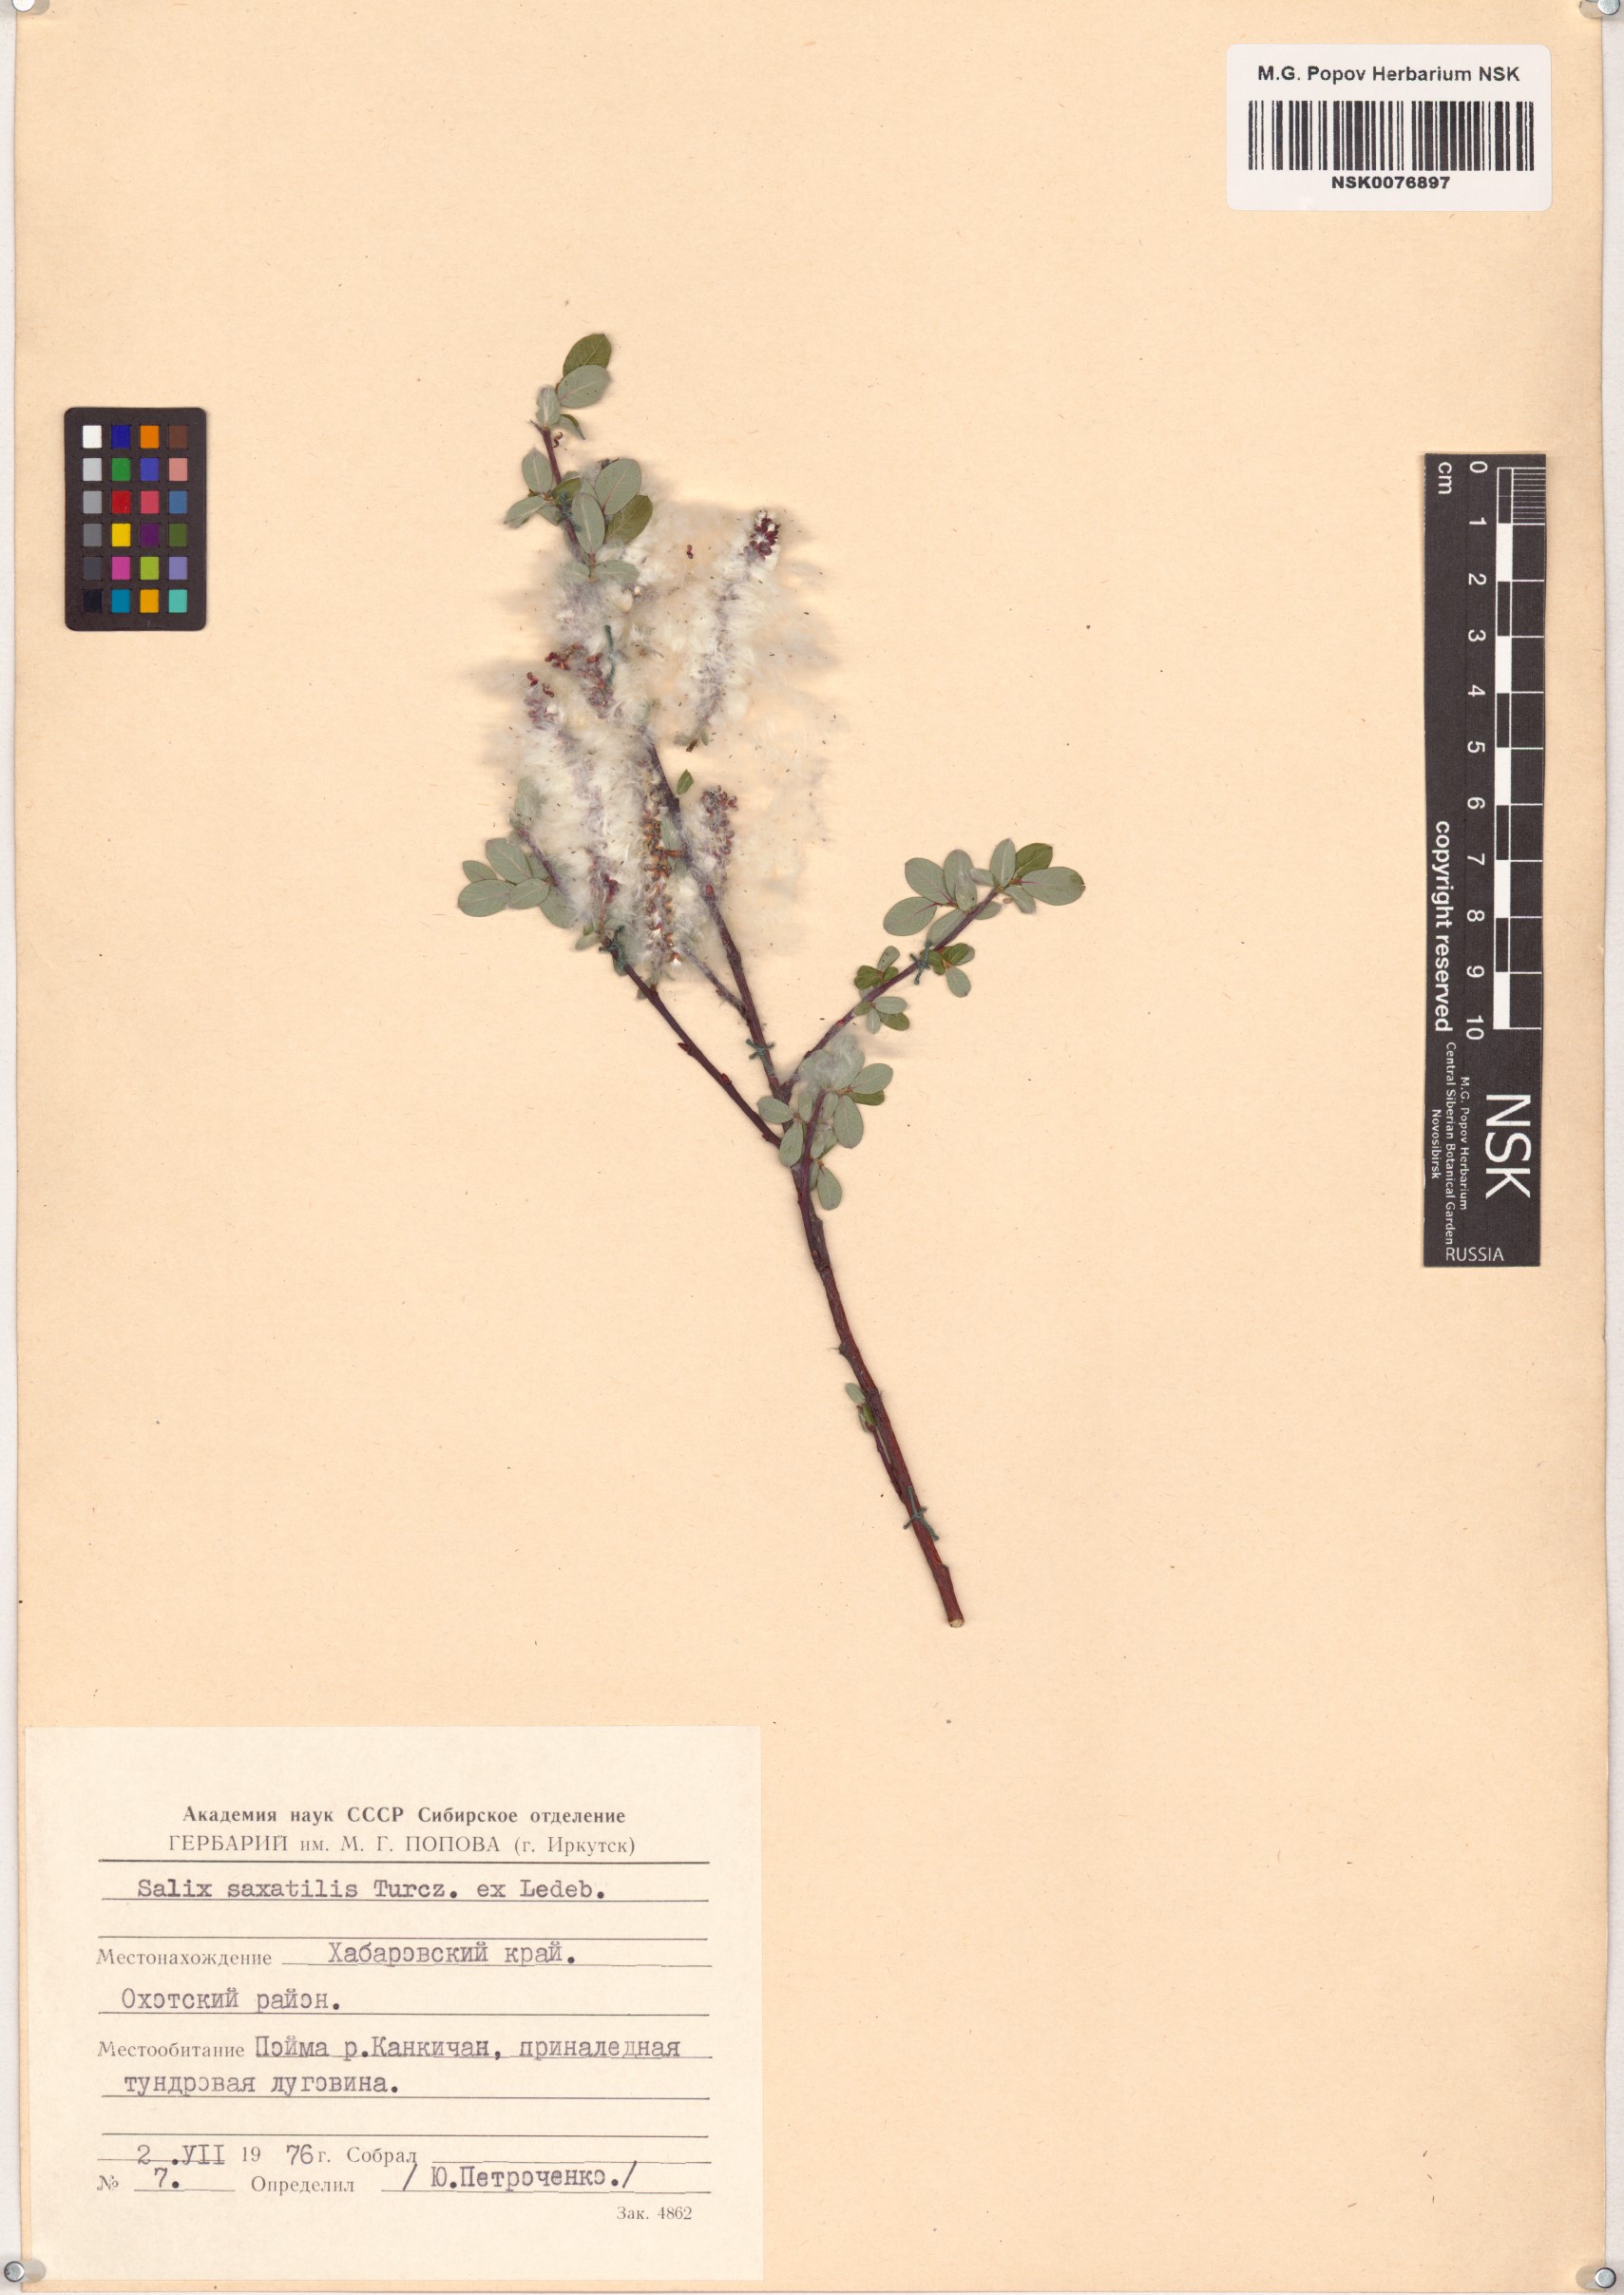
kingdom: Plantae
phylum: Tracheophyta
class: Magnoliopsida
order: Malpighiales
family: Salicaceae
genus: Salix
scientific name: Salix saxatilis
